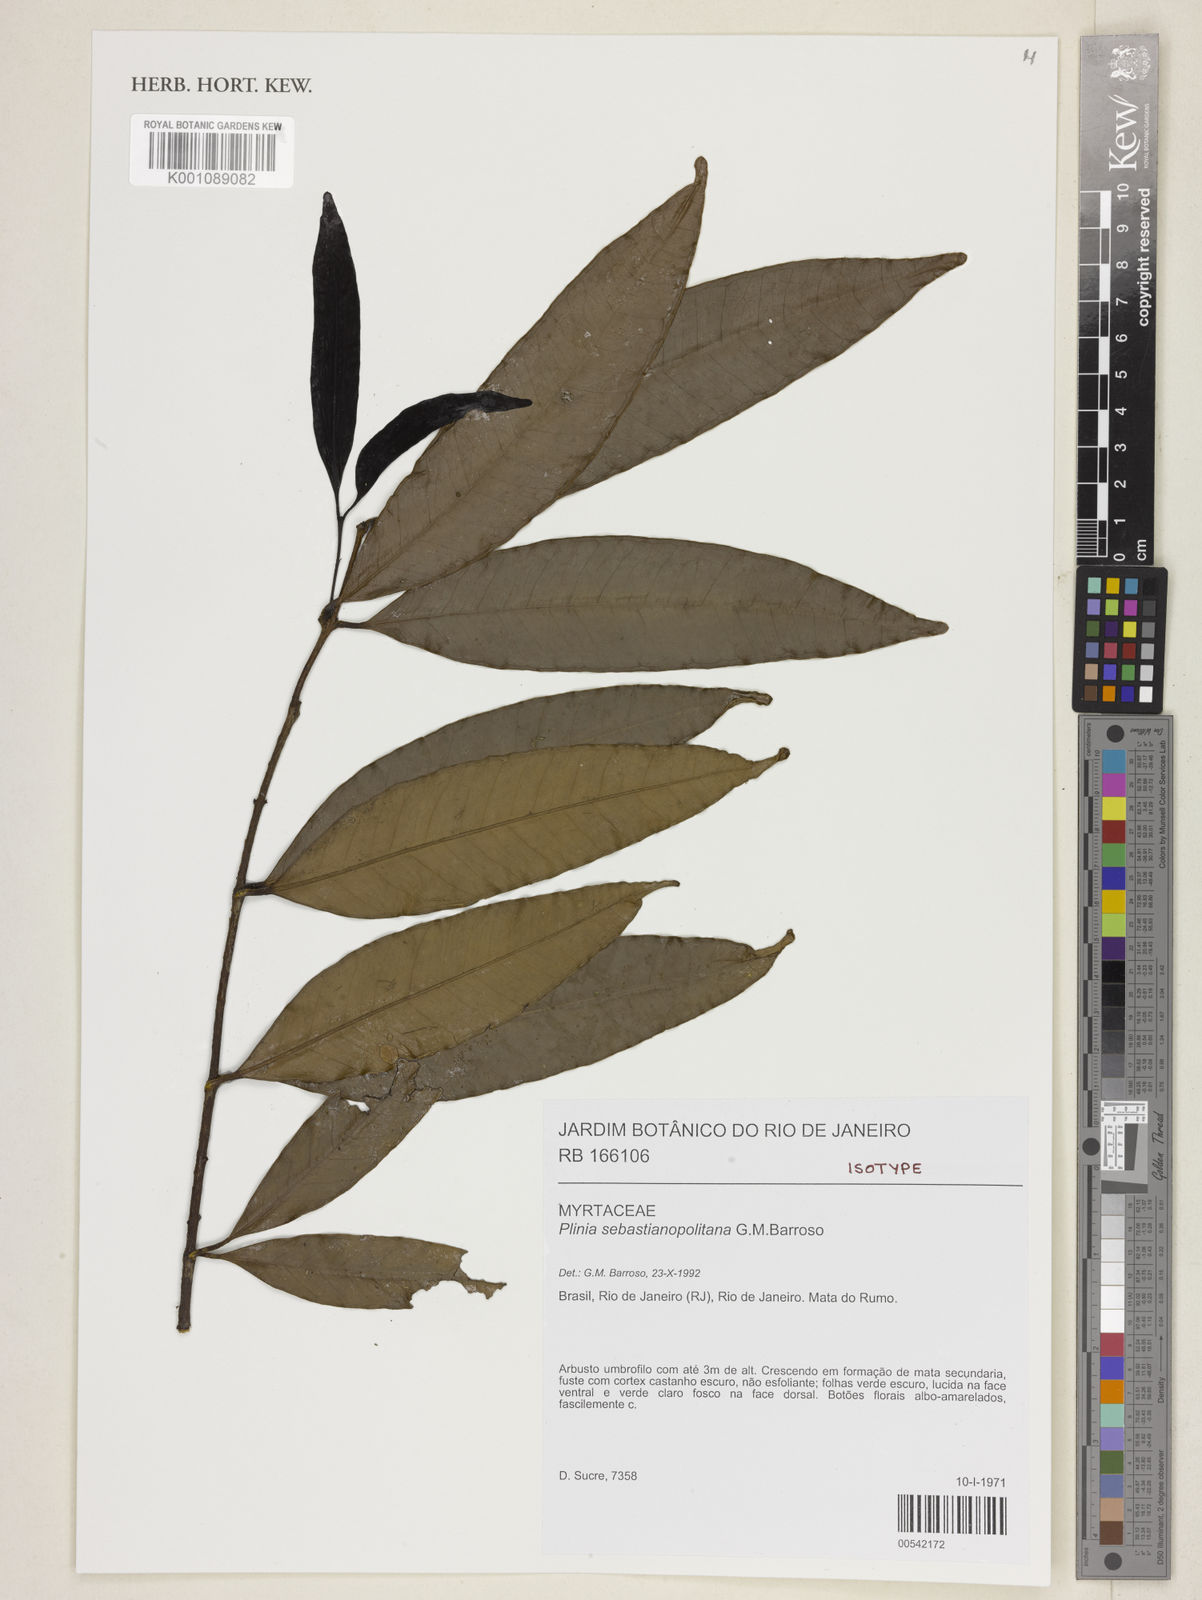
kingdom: Plantae
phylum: Tracheophyta
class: Magnoliopsida
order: Myrtales
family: Myrtaceae
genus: Eugenia
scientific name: Eugenia sebastianopolitana
